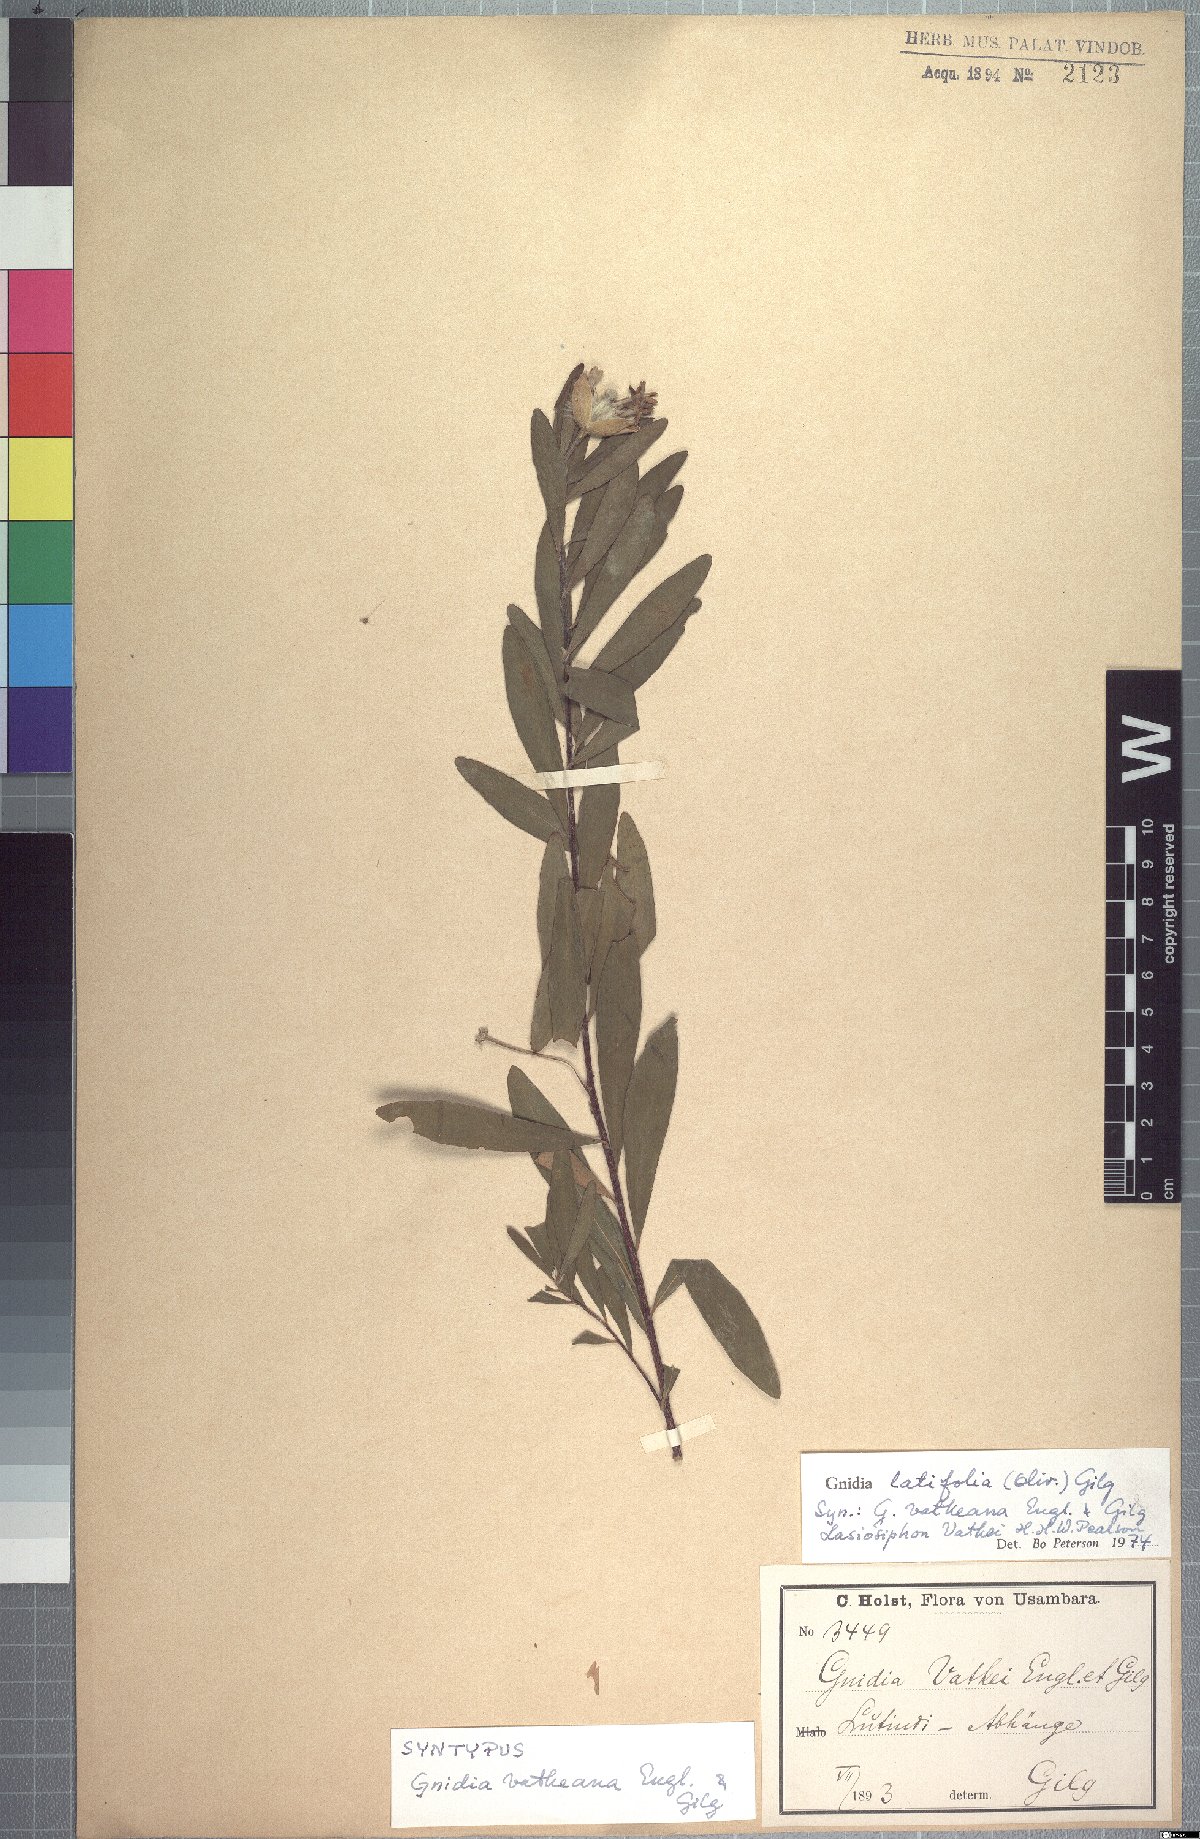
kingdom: Plantae
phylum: Tracheophyta
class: Magnoliopsida
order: Malvales
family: Thymelaeaceae
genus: Gnidia
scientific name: Gnidia latifolia
